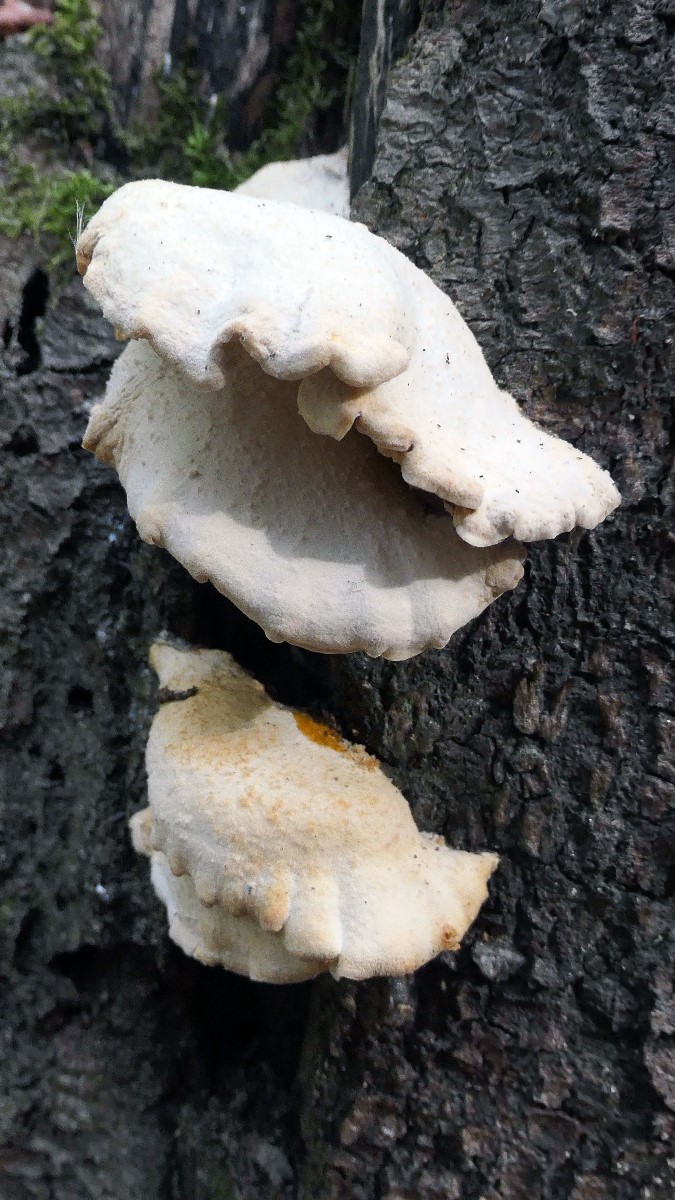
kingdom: Fungi
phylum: Basidiomycota
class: Agaricomycetes
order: Polyporales
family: Incrustoporiaceae
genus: Tyromyces
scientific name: Tyromyces chioneus
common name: stor blødporesvamp
